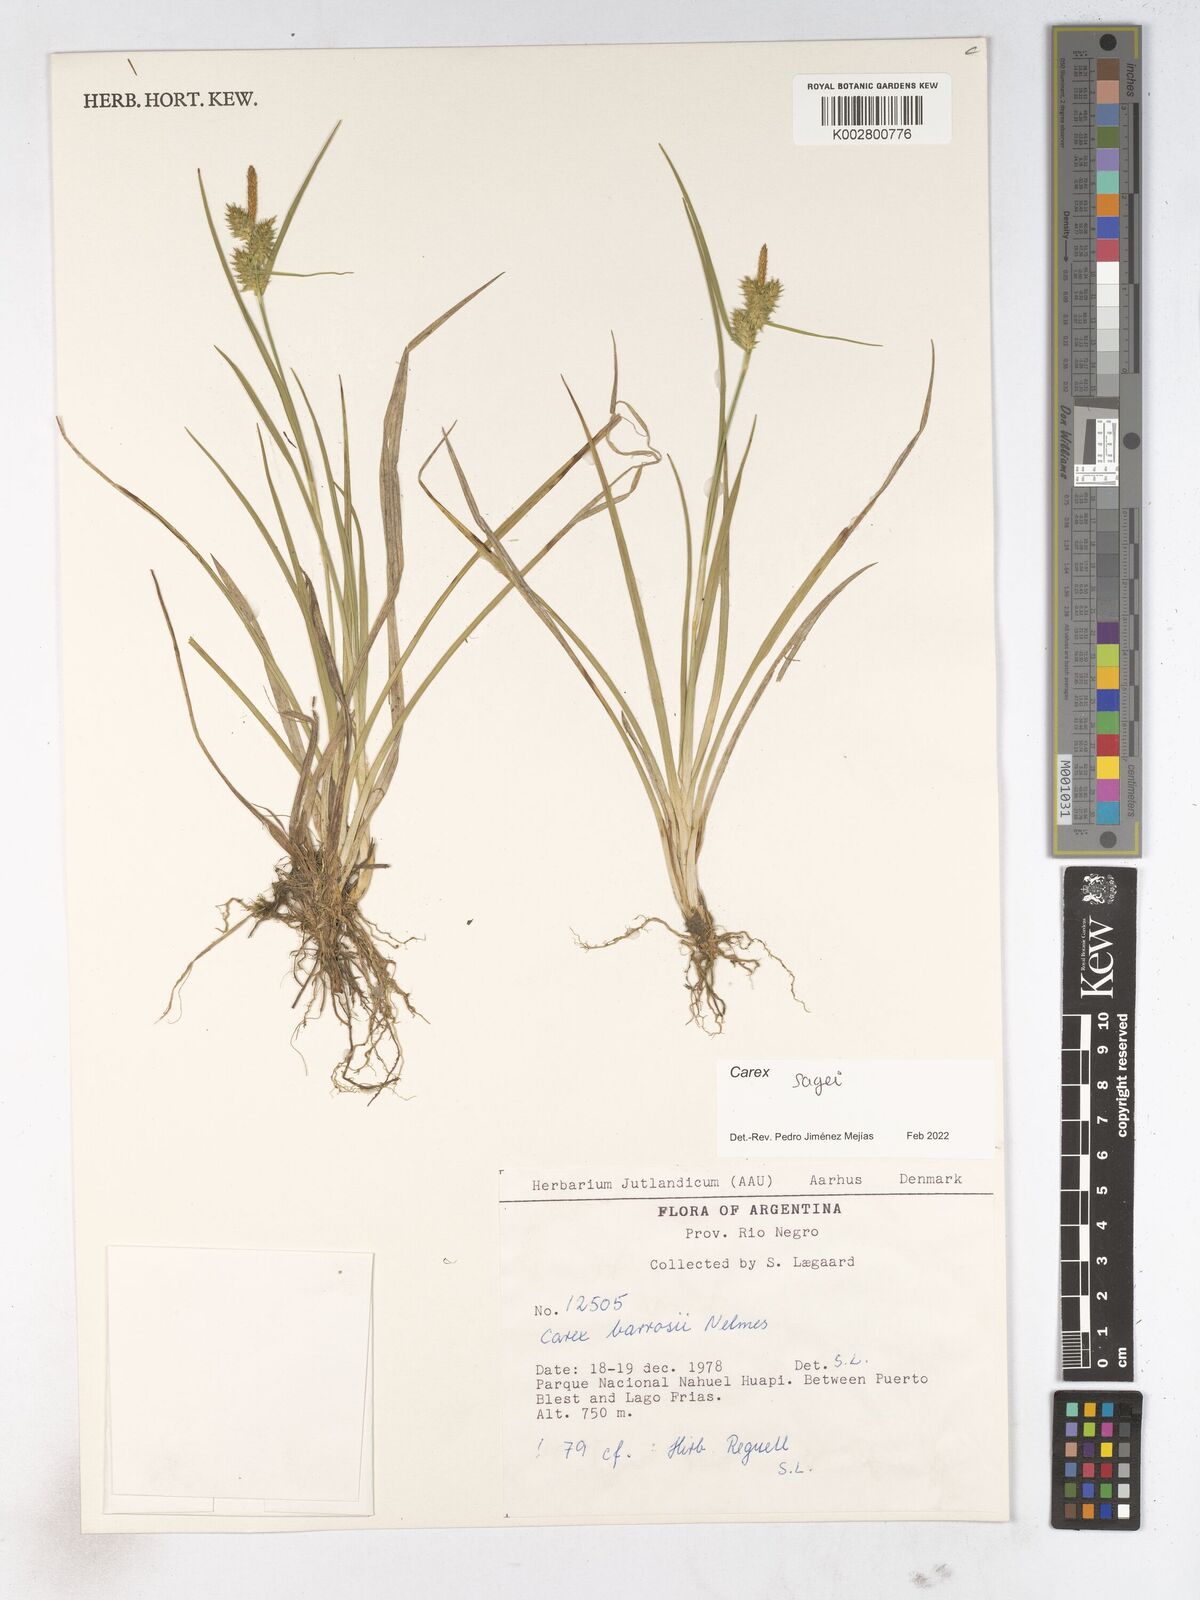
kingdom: Plantae
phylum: Tracheophyta
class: Liliopsida
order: Poales
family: Cyperaceae
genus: Carex
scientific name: Carex
